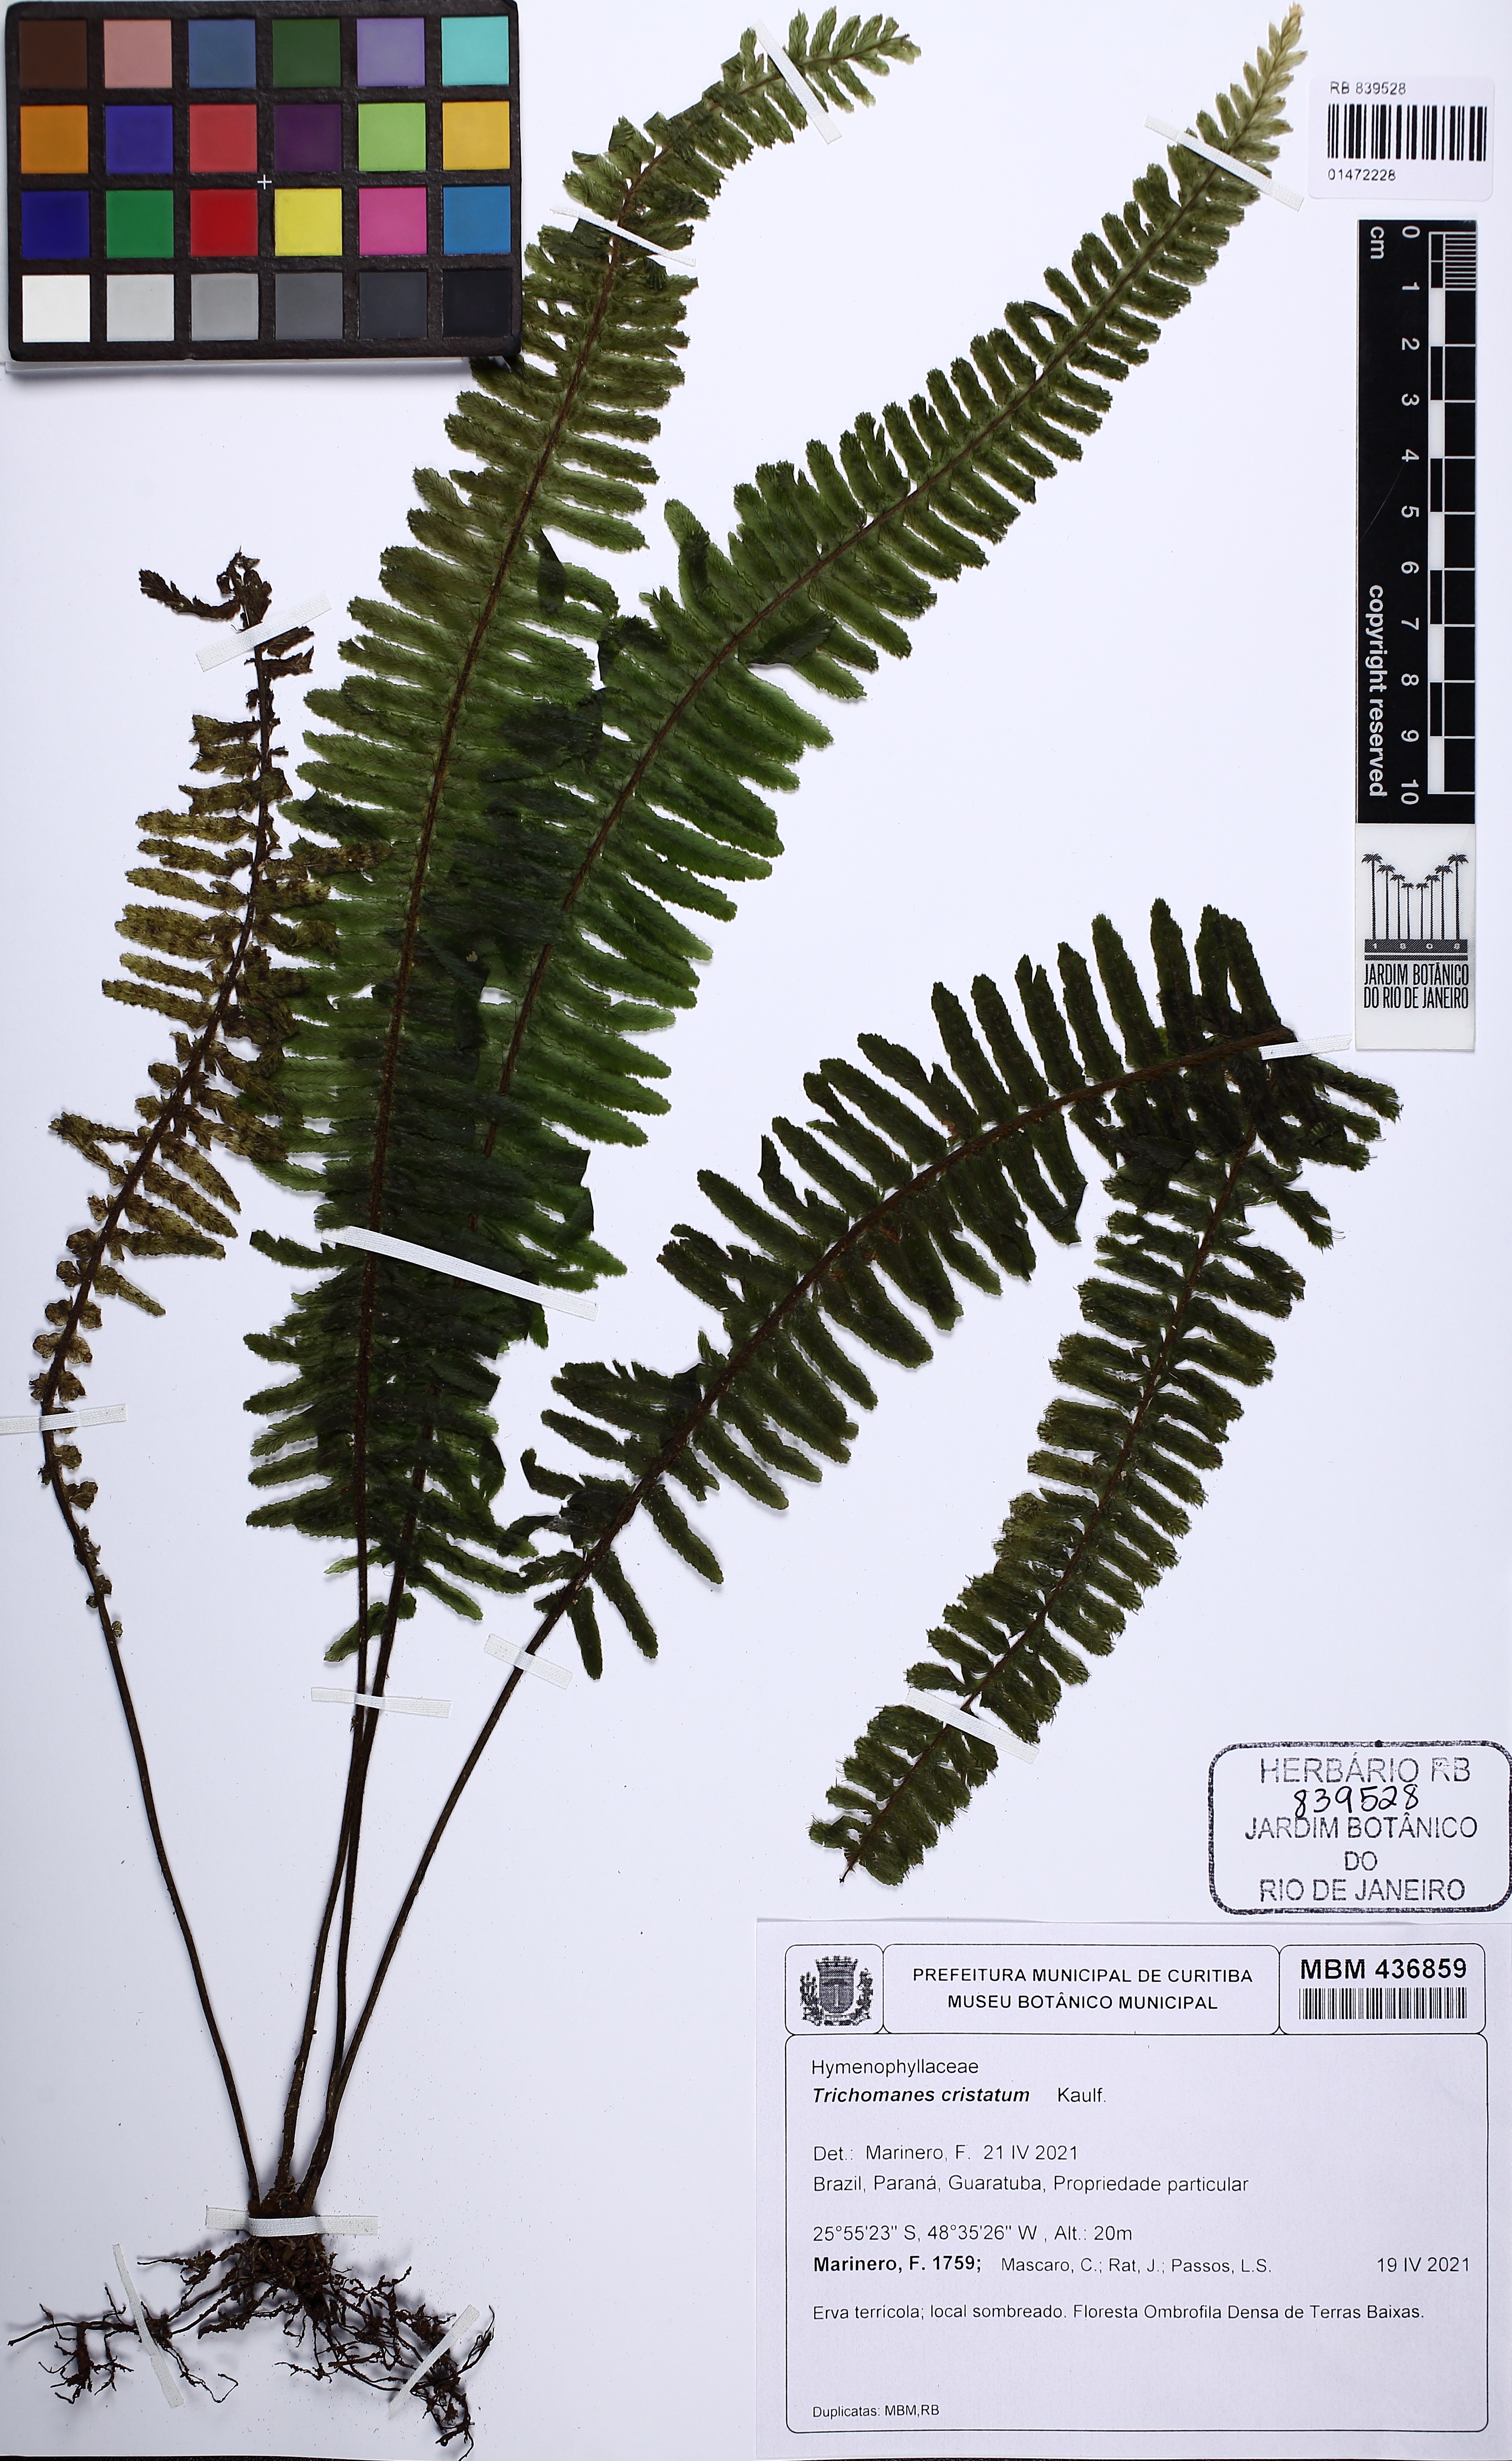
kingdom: Plantae
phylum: Tracheophyta
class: Polypodiopsida
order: Hymenophyllales
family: Hymenophyllaceae
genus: Trichomanes
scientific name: Trichomanes cristatum
